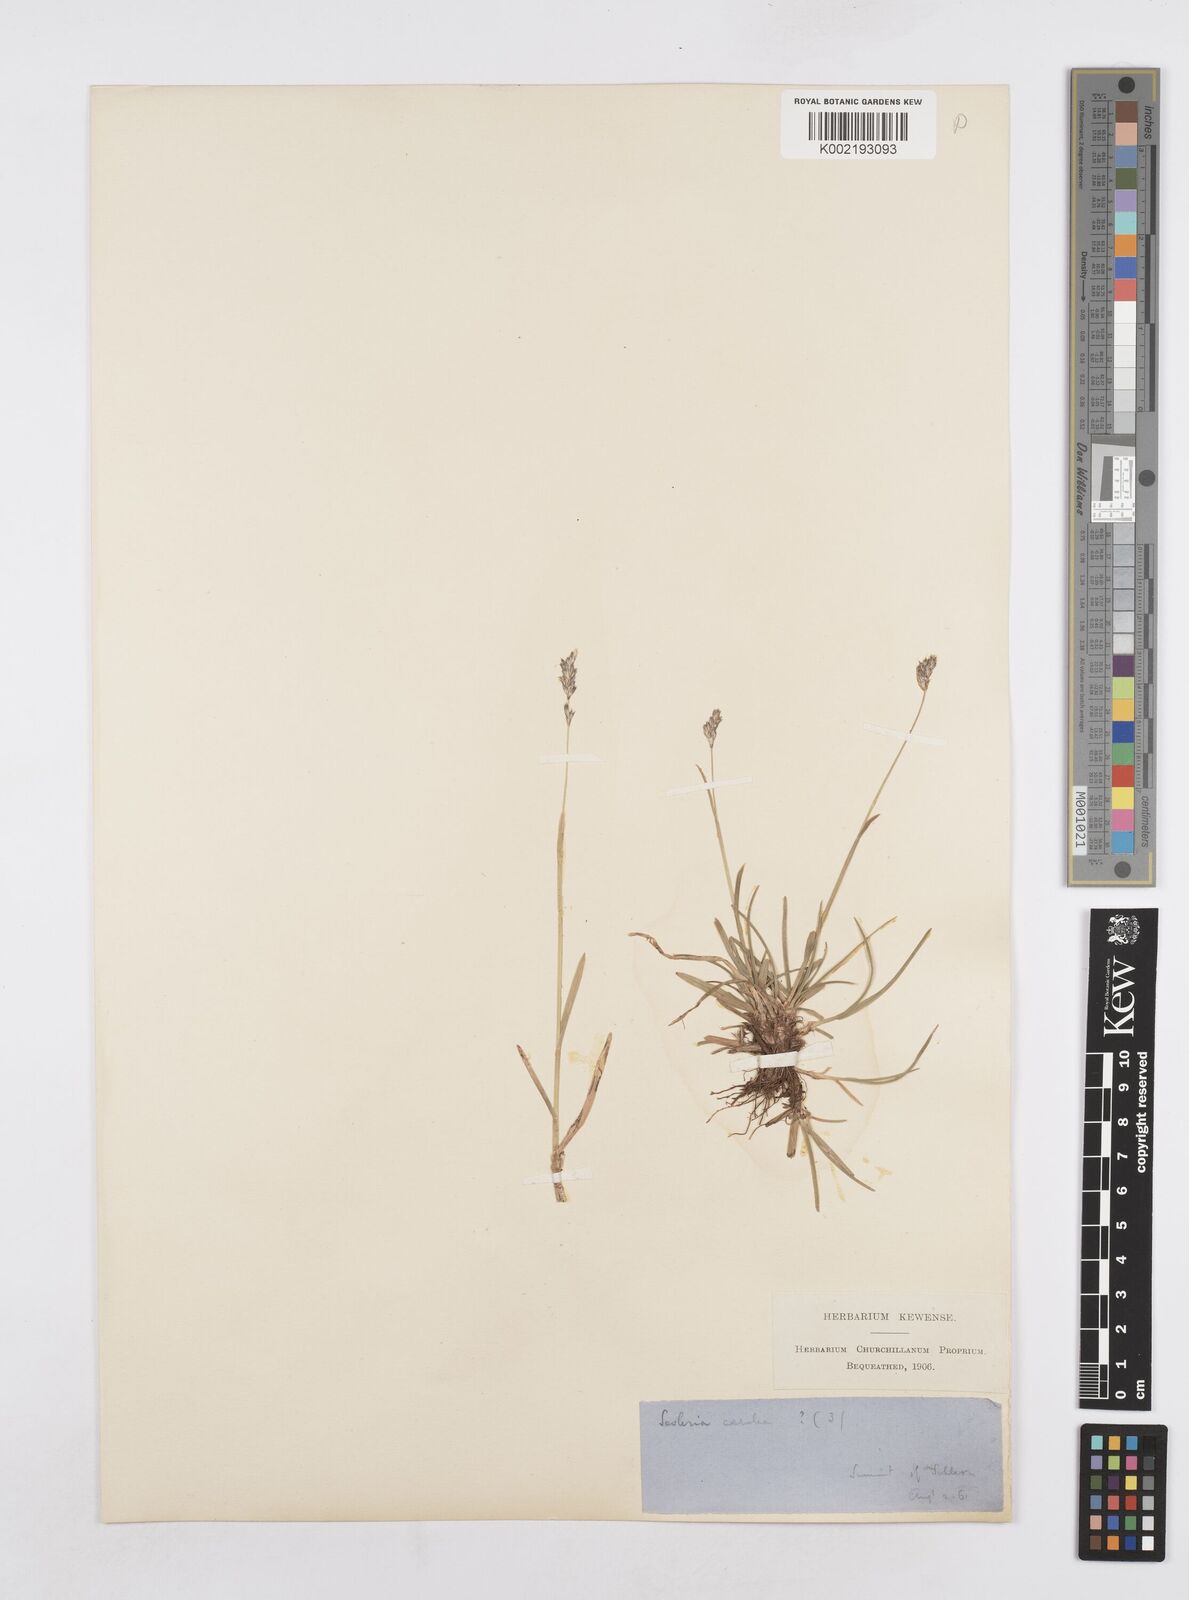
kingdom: Plantae
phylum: Tracheophyta
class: Liliopsida
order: Poales
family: Poaceae
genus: Sesleria
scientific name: Sesleria
